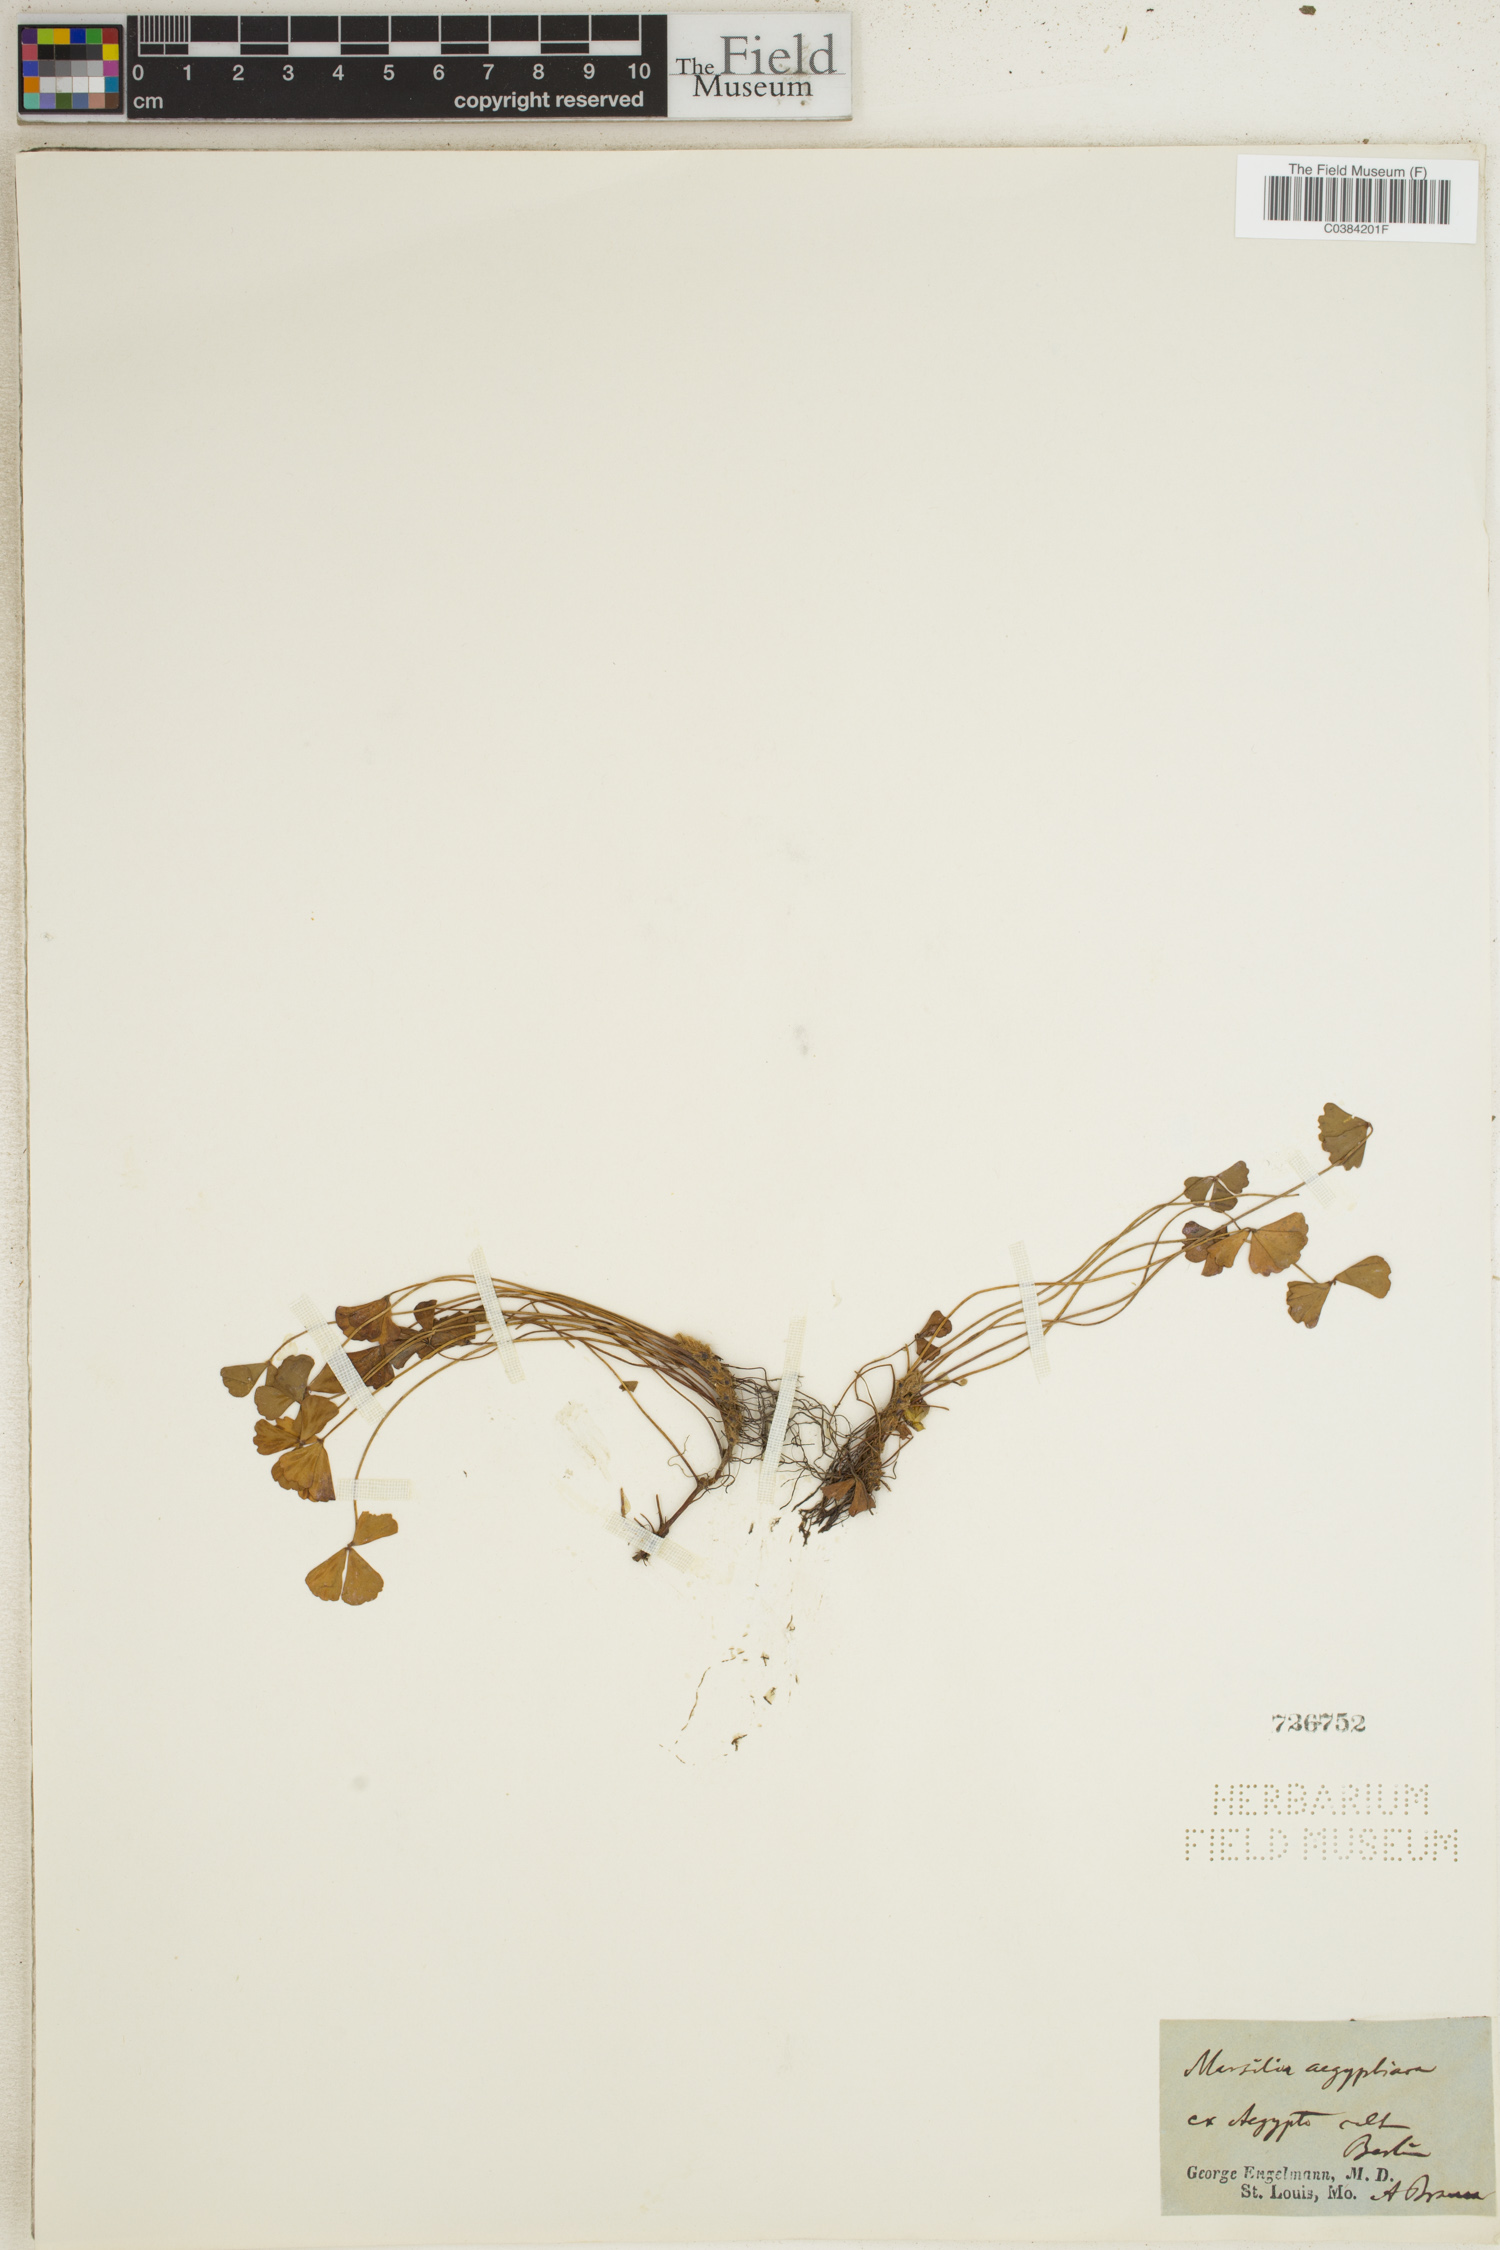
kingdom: Plantae
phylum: Tracheophyta
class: Polypodiopsida
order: Salviniales
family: Marsileaceae
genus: Marsilea
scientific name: Marsilea aegyptica
